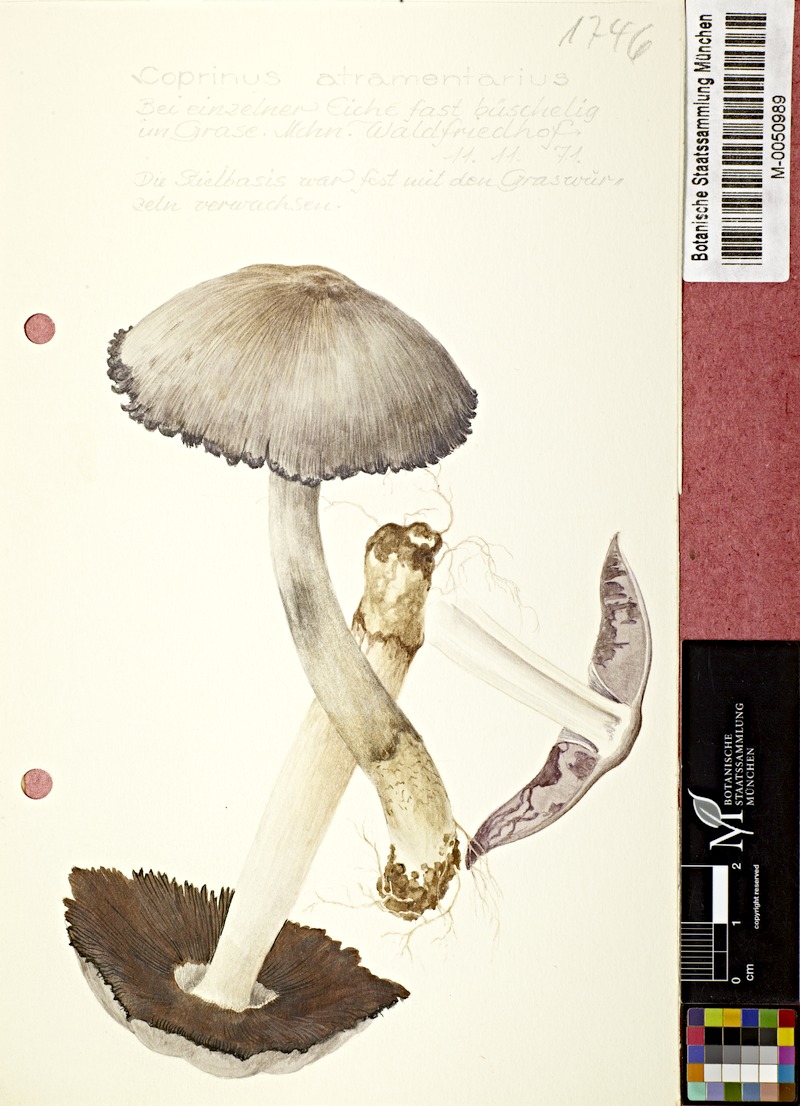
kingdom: Fungi
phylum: Basidiomycota
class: Agaricomycetes
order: Agaricales
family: Psathyrellaceae
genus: Coprinopsis
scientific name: Coprinopsis atramentaria
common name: Common ink-cap
